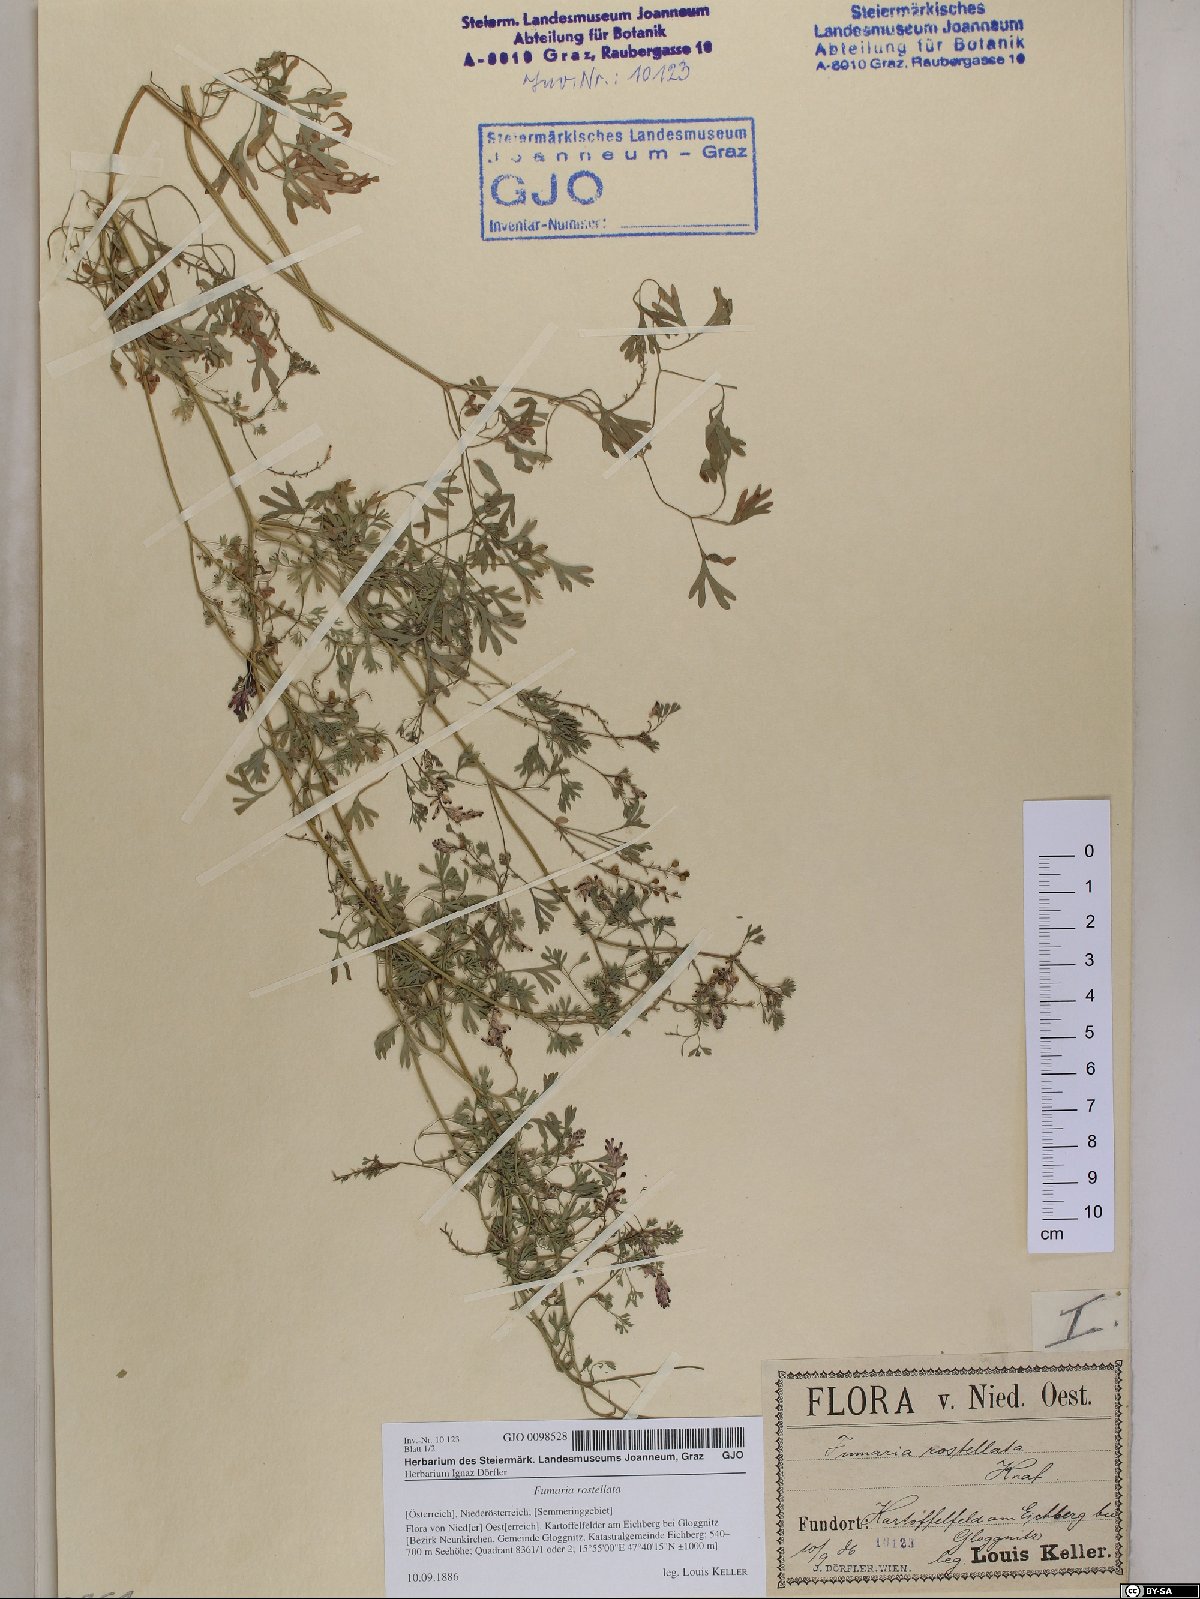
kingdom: Plantae
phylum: Tracheophyta
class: Magnoliopsida
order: Ranunculales
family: Papaveraceae
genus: Fumaria
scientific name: Fumaria rostellata
